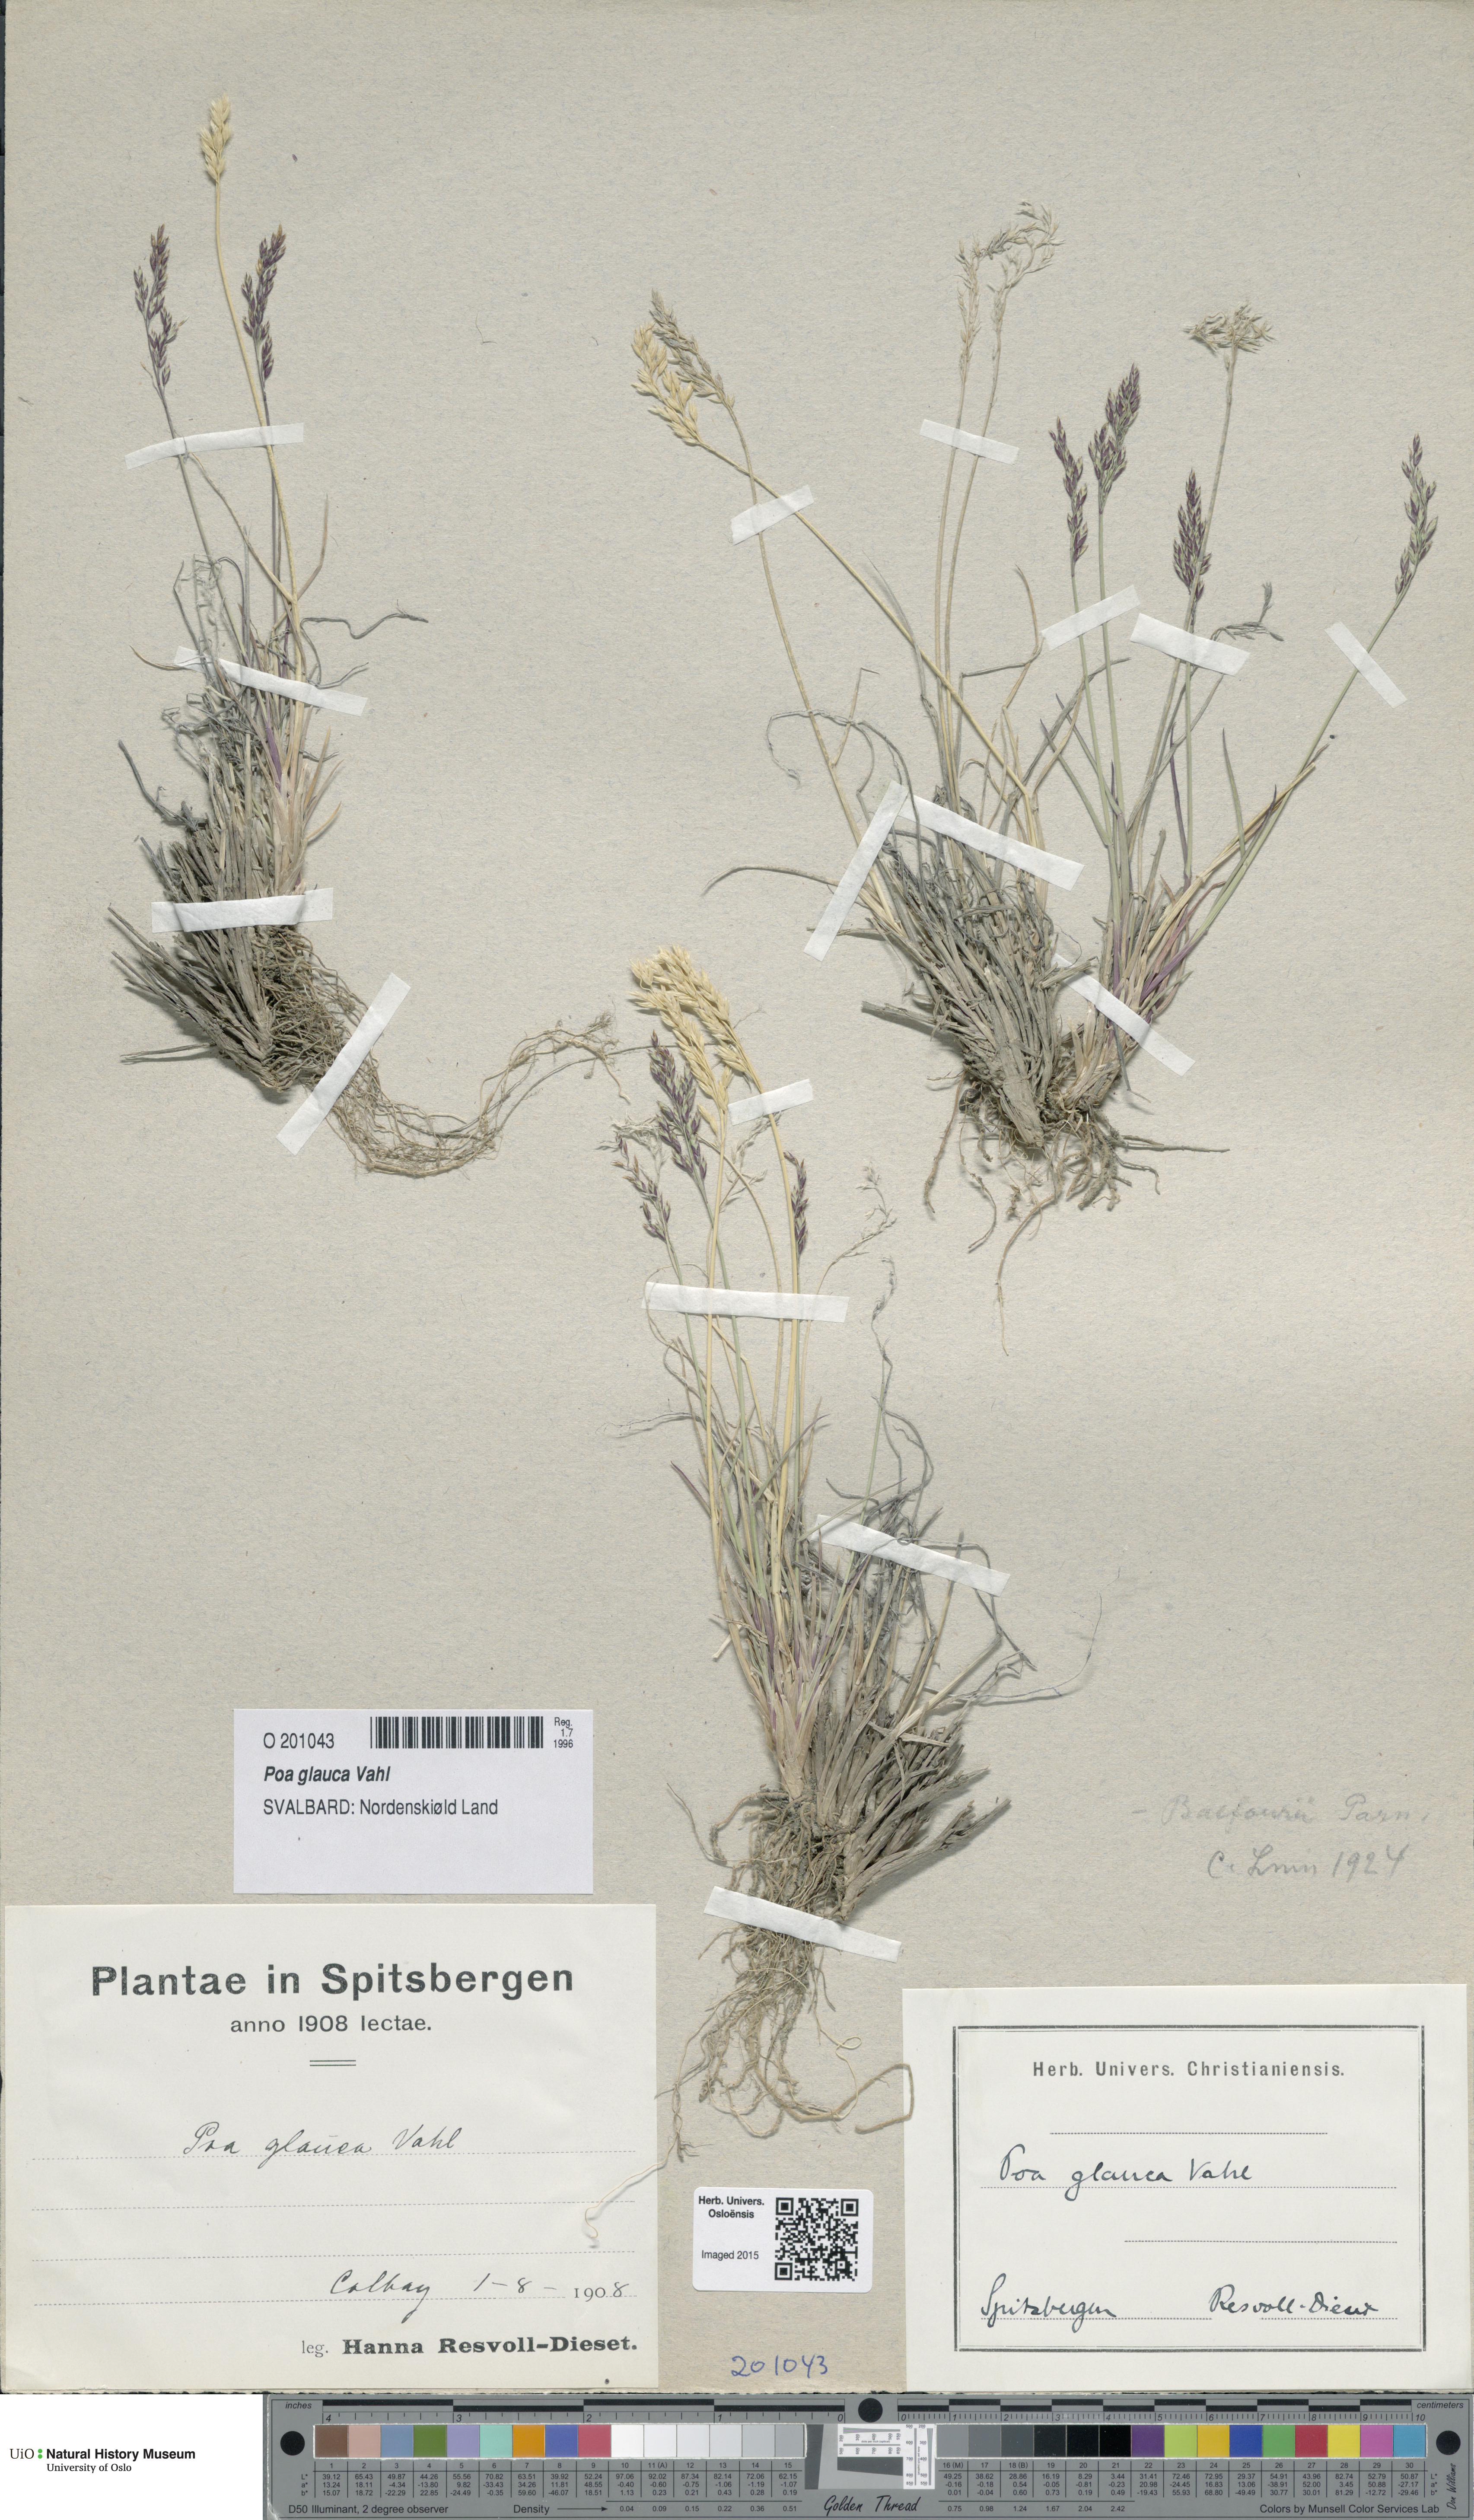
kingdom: Plantae
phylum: Tracheophyta
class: Liliopsida
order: Poales
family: Poaceae
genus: Poa
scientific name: Poa glauca
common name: Glaucous bluegrass
